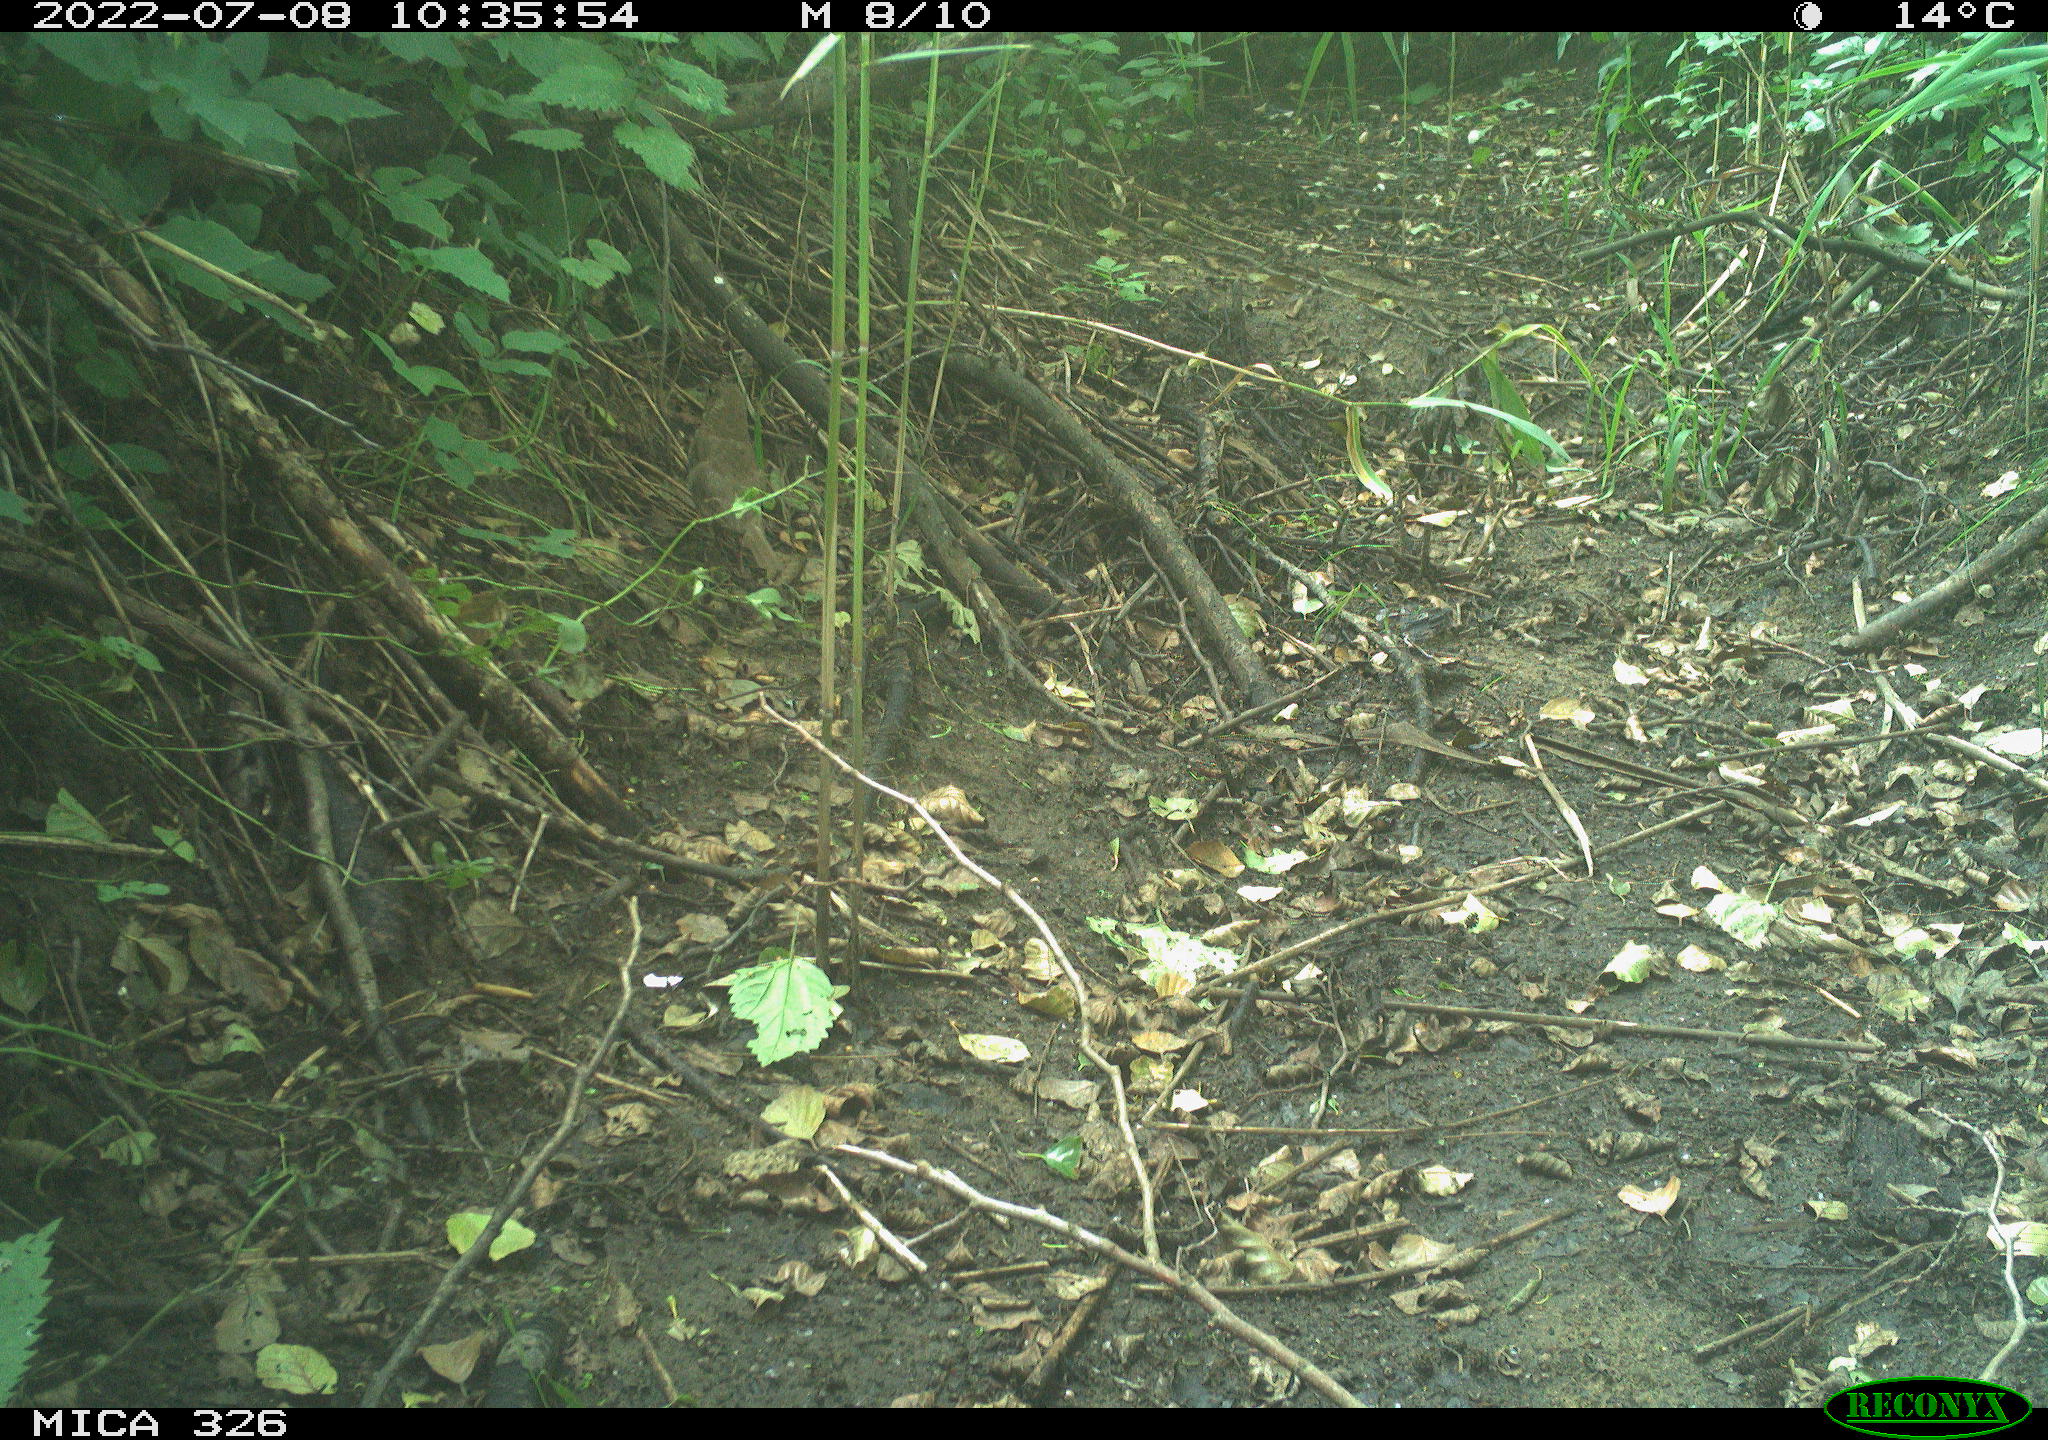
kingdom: Animalia
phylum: Chordata
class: Aves
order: Passeriformes
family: Turdidae
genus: Turdus
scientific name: Turdus philomelos
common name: Song thrush
